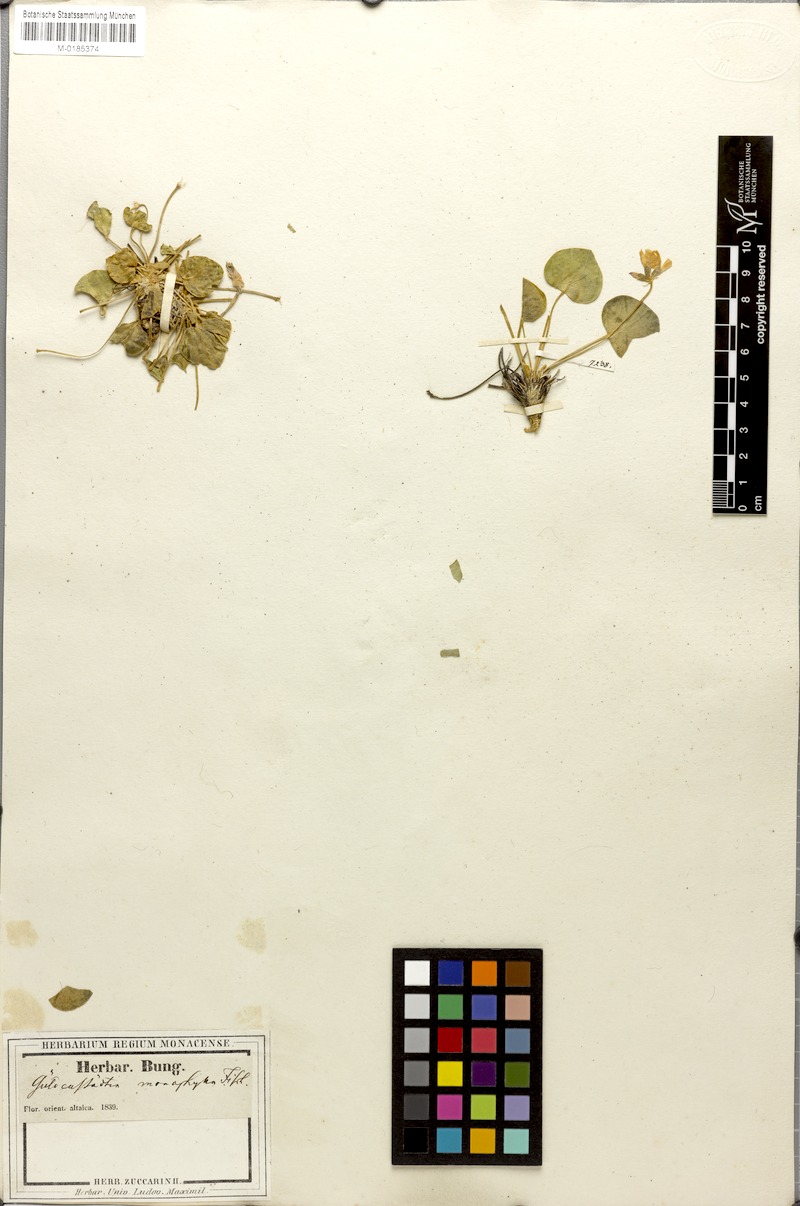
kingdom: Plantae
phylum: Tracheophyta
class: Magnoliopsida
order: Fabales
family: Fabaceae
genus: Gueldenstaedtia
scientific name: Gueldenstaedtia monophylla
